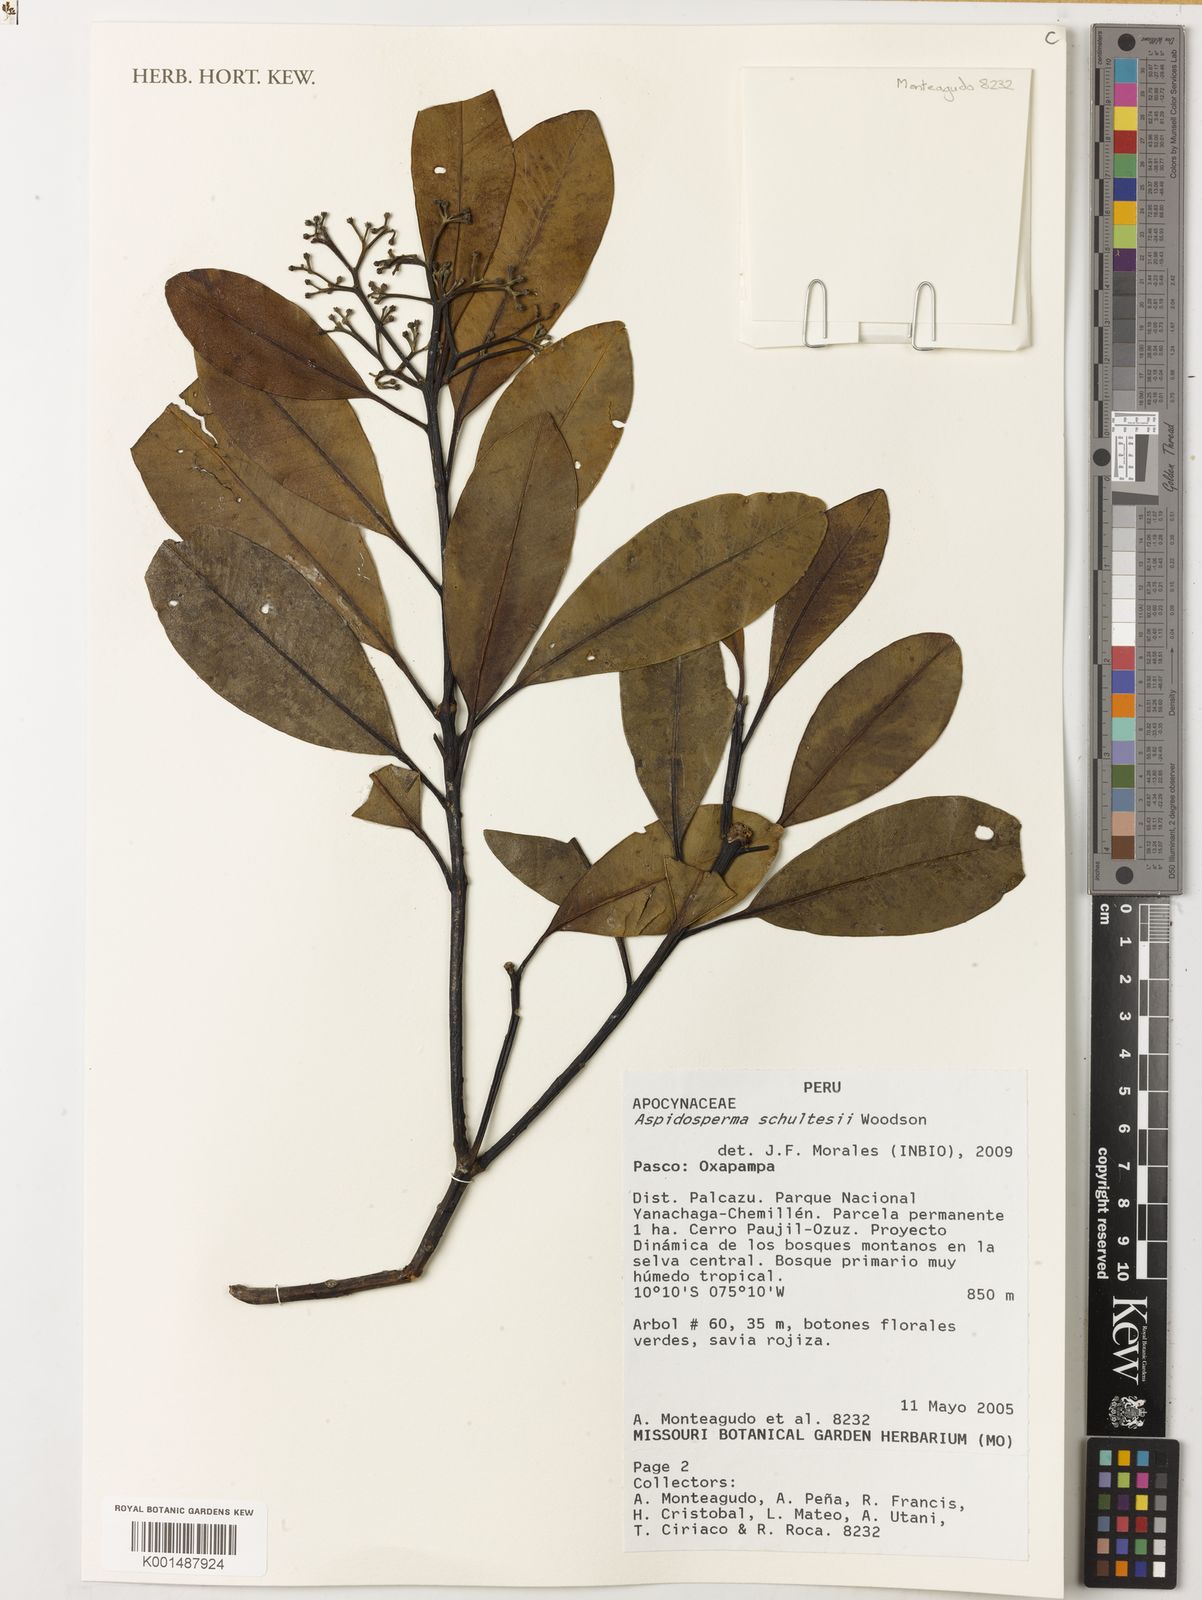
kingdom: Plantae
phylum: Tracheophyta
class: Magnoliopsida
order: Gentianales
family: Apocynaceae
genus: Aspidosperma
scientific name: Aspidosperma schultesii
